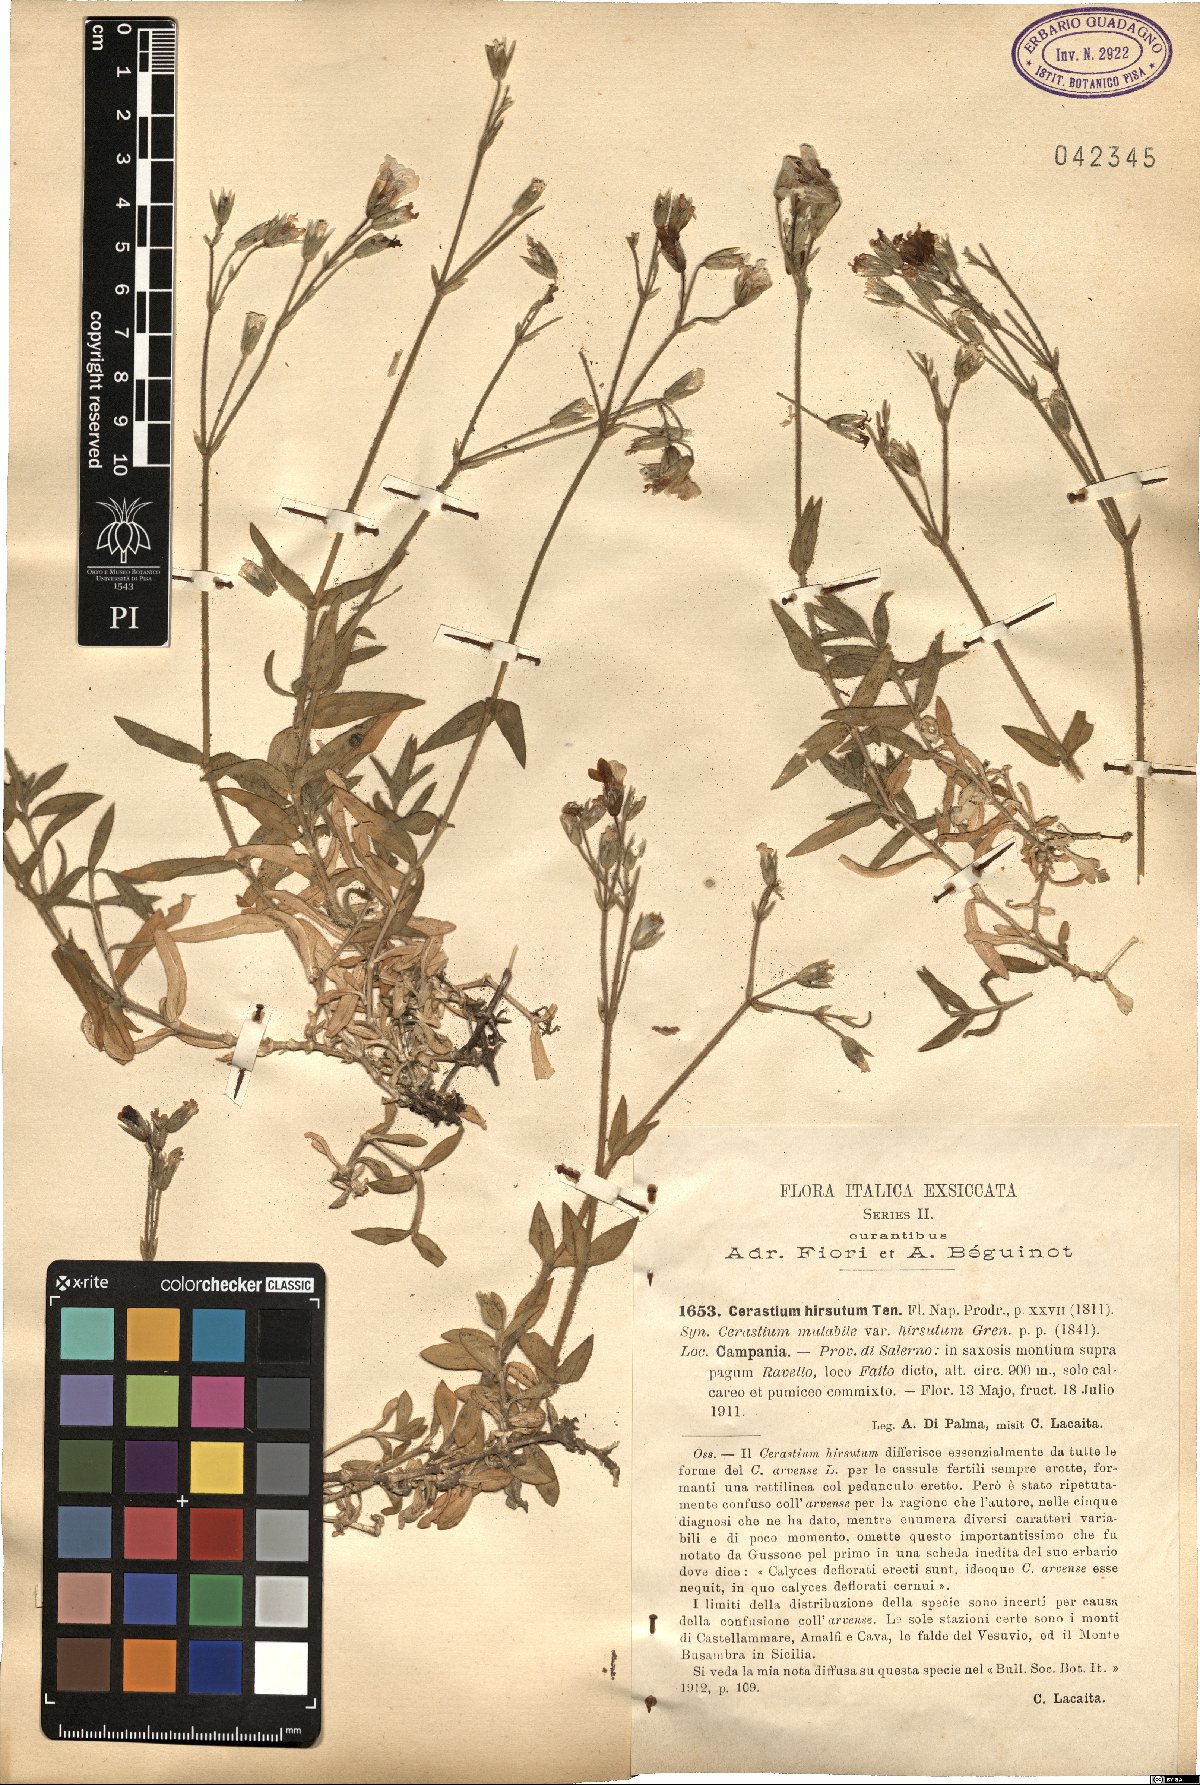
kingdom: Plantae
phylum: Tracheophyta
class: Magnoliopsida
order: Caryophyllales
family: Caryophyllaceae
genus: Cerastium
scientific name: Cerastium scaranii
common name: Italian mouse-ear
